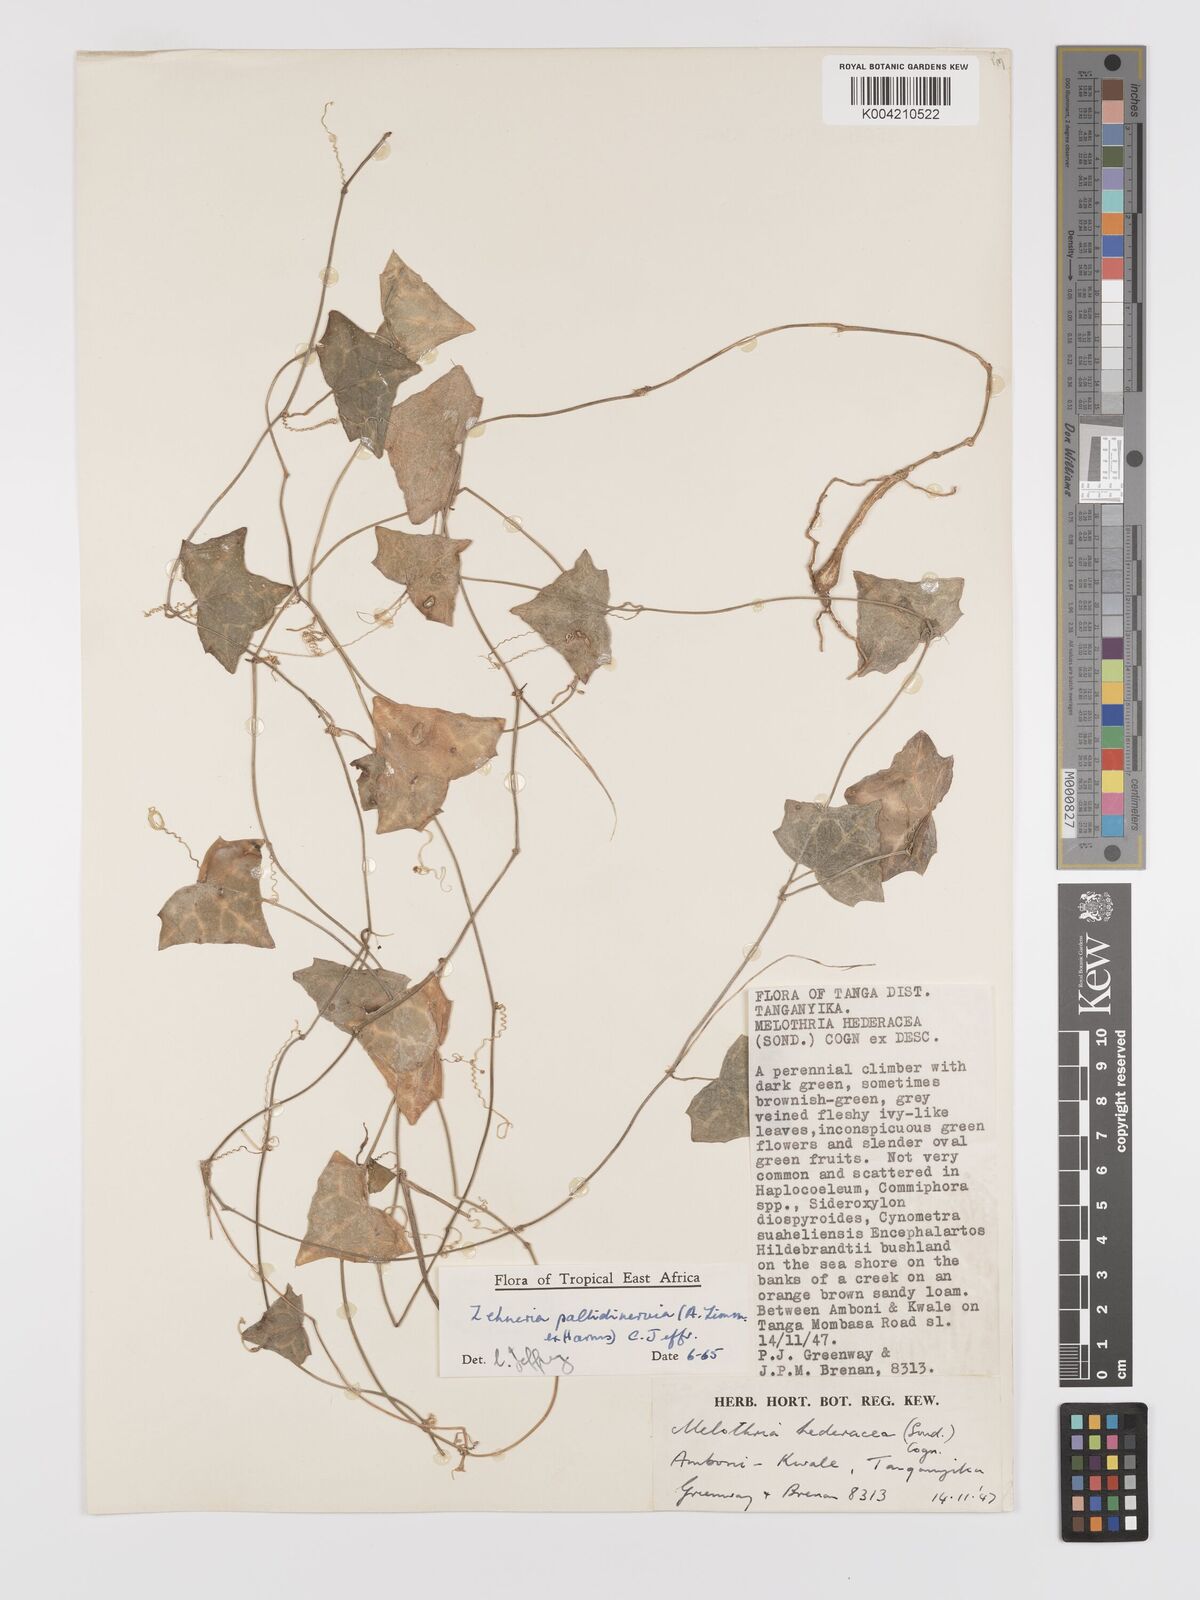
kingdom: Plantae
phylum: Tracheophyta
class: Magnoliopsida
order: Cucurbitales
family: Cucurbitaceae
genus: Zehneria
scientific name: Zehneria pallidinervia
